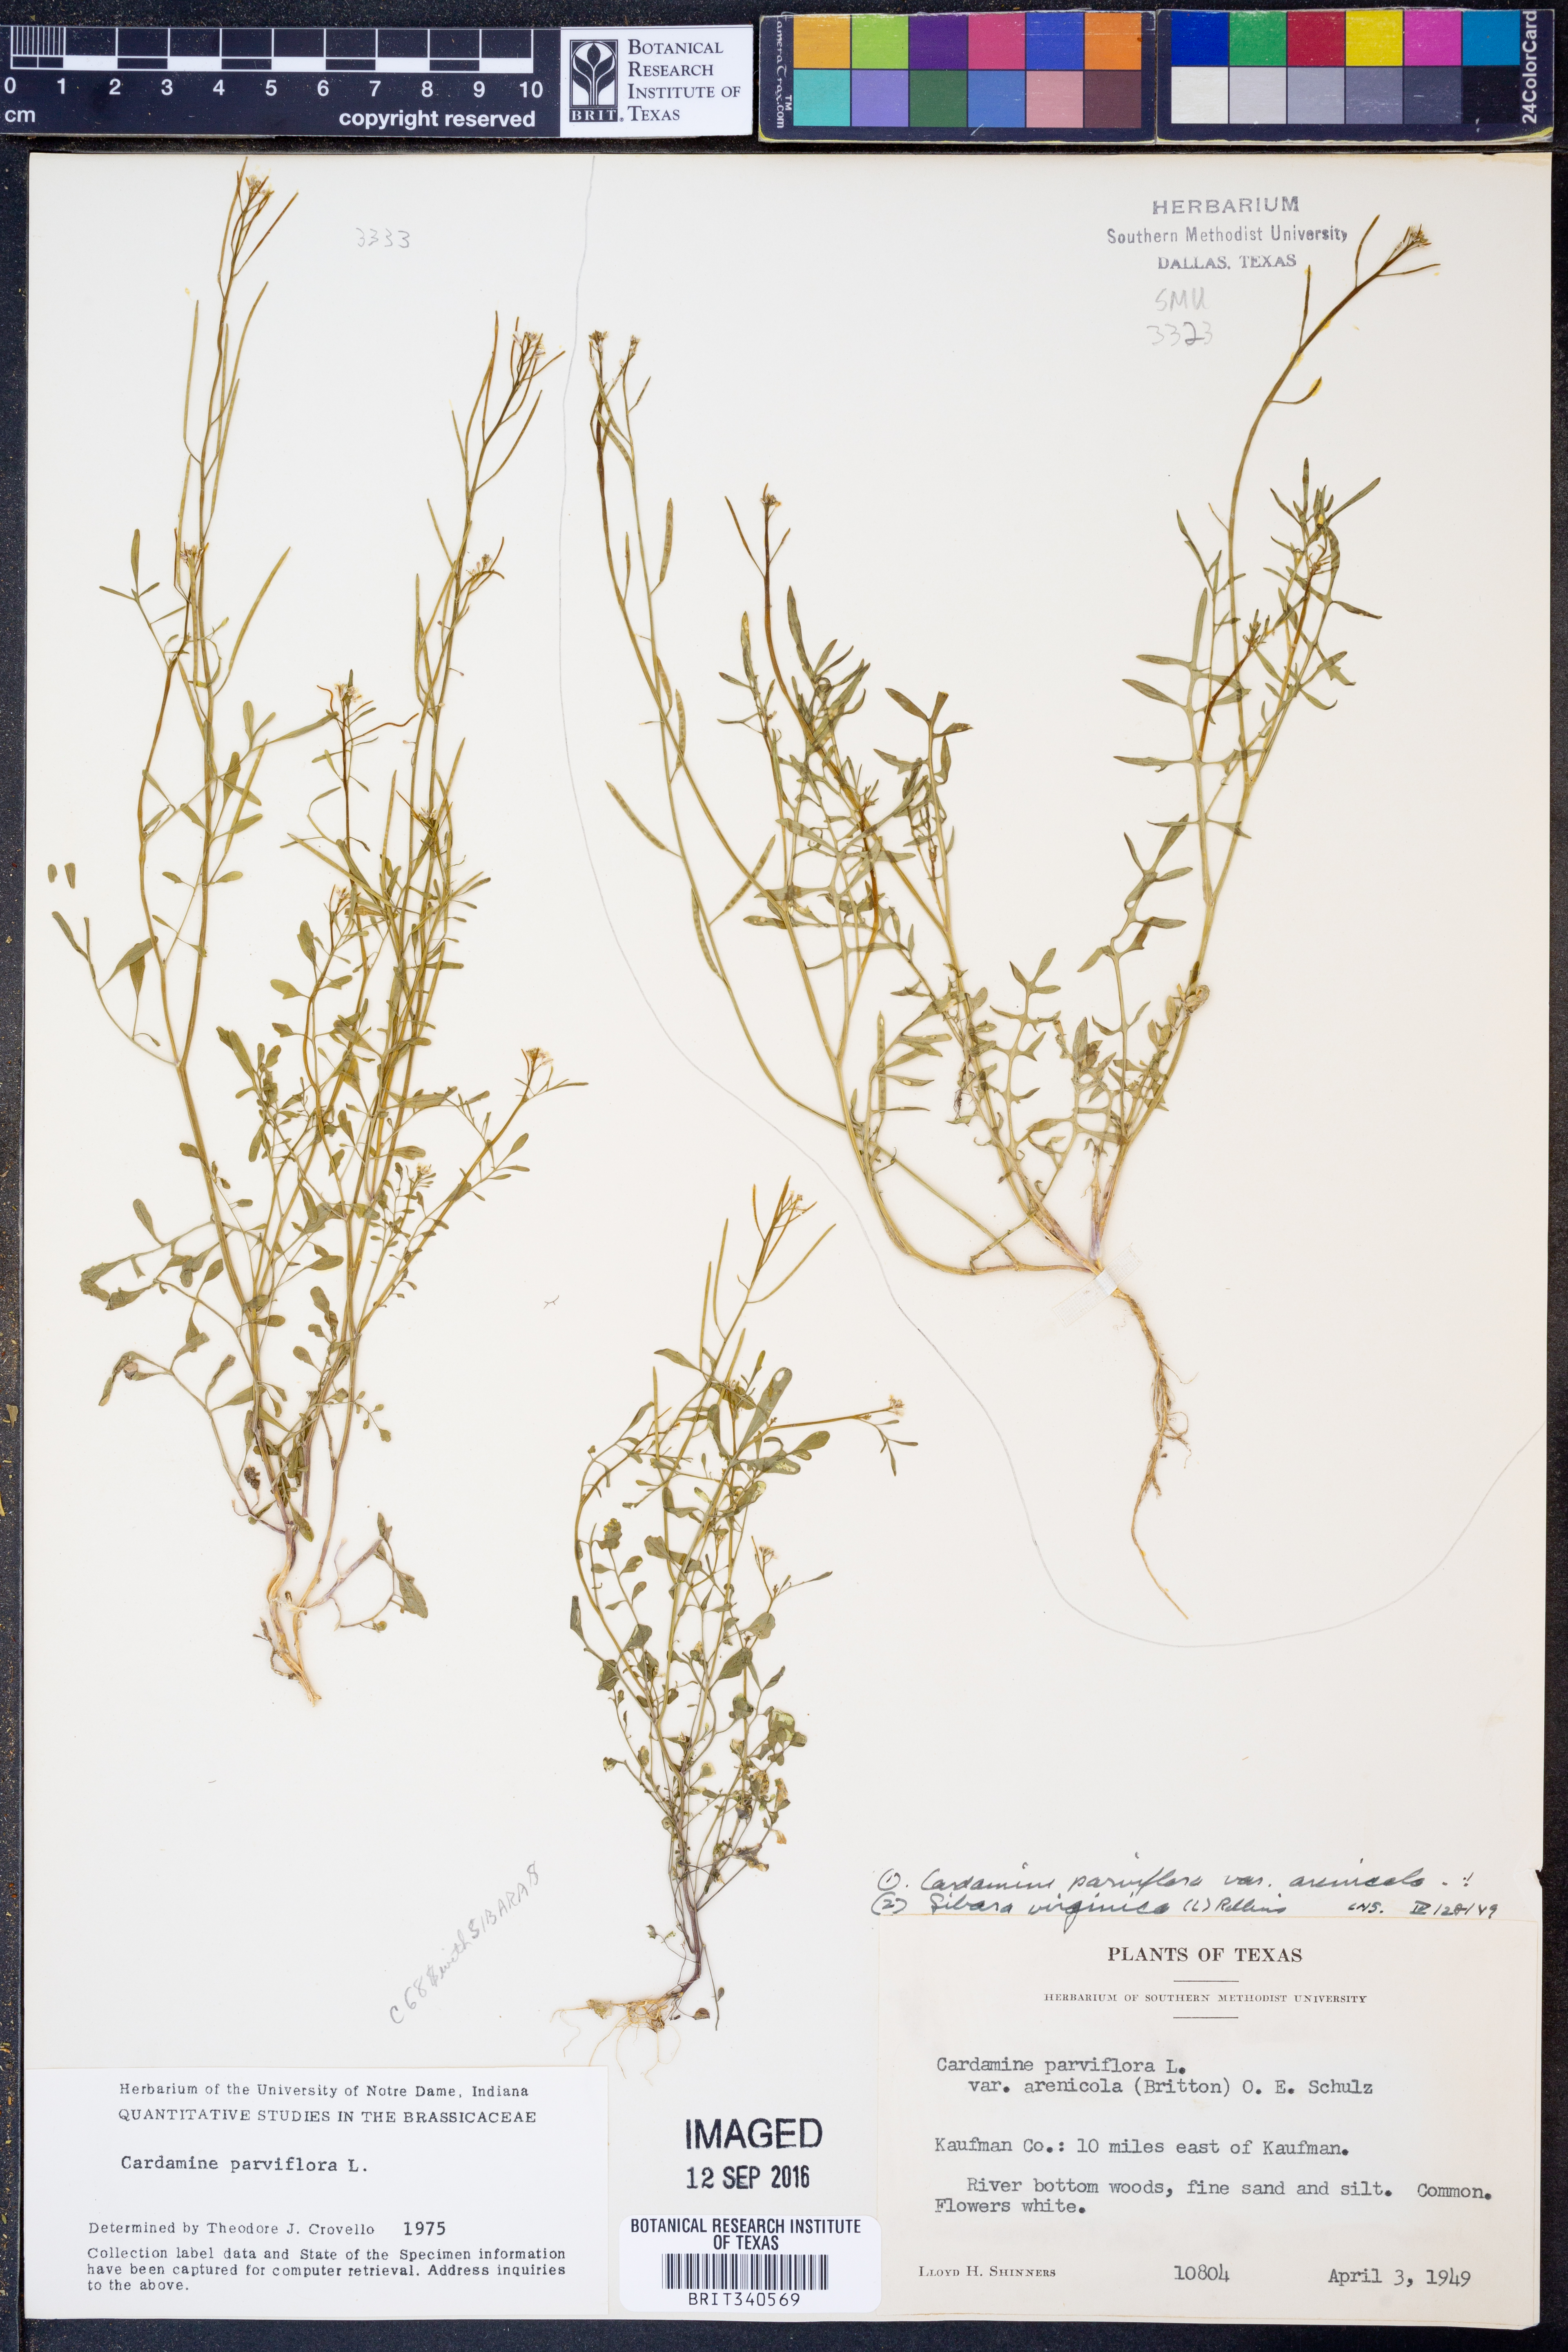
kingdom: Plantae
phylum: Tracheophyta
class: Magnoliopsida
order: Brassicales
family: Brassicaceae
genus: Cardamine
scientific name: Cardamine parviflora
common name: Sand bittercress
